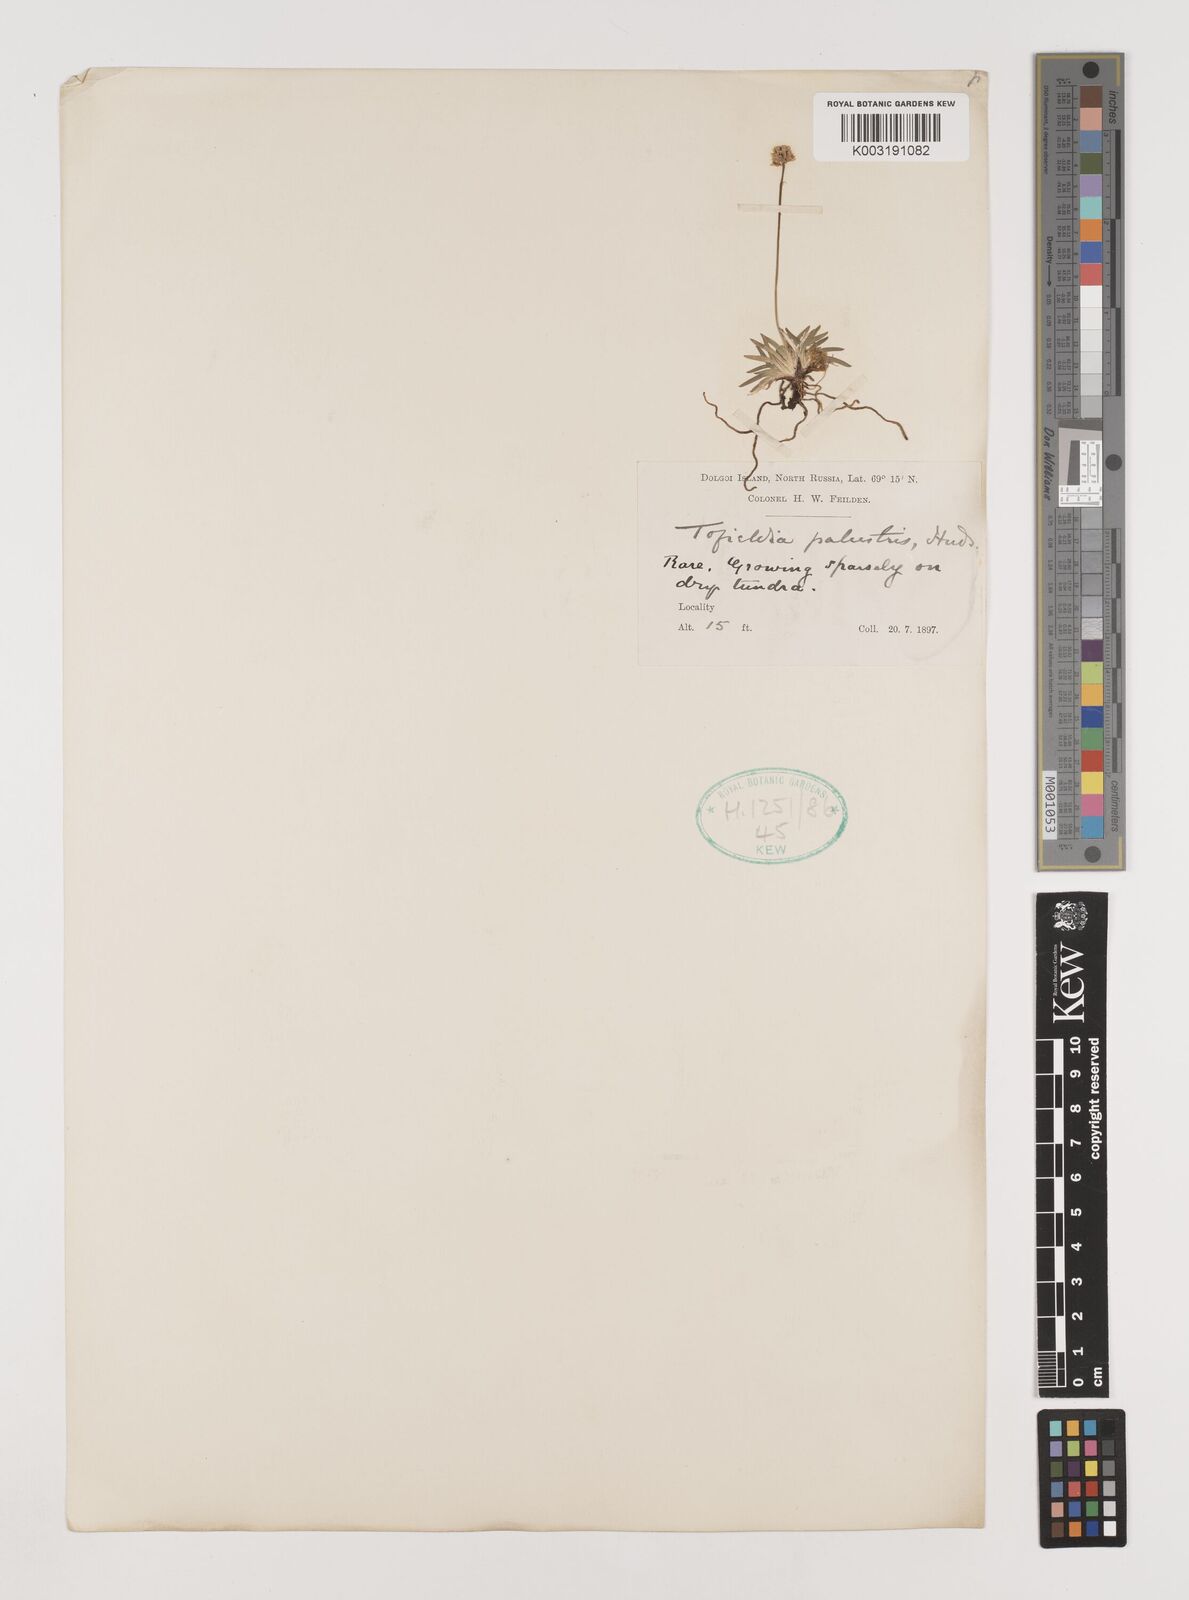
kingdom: Plantae
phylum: Tracheophyta
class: Liliopsida
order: Alismatales
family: Tofieldiaceae
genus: Tofieldia
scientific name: Tofieldia pusilla
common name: Scottish false asphodel
